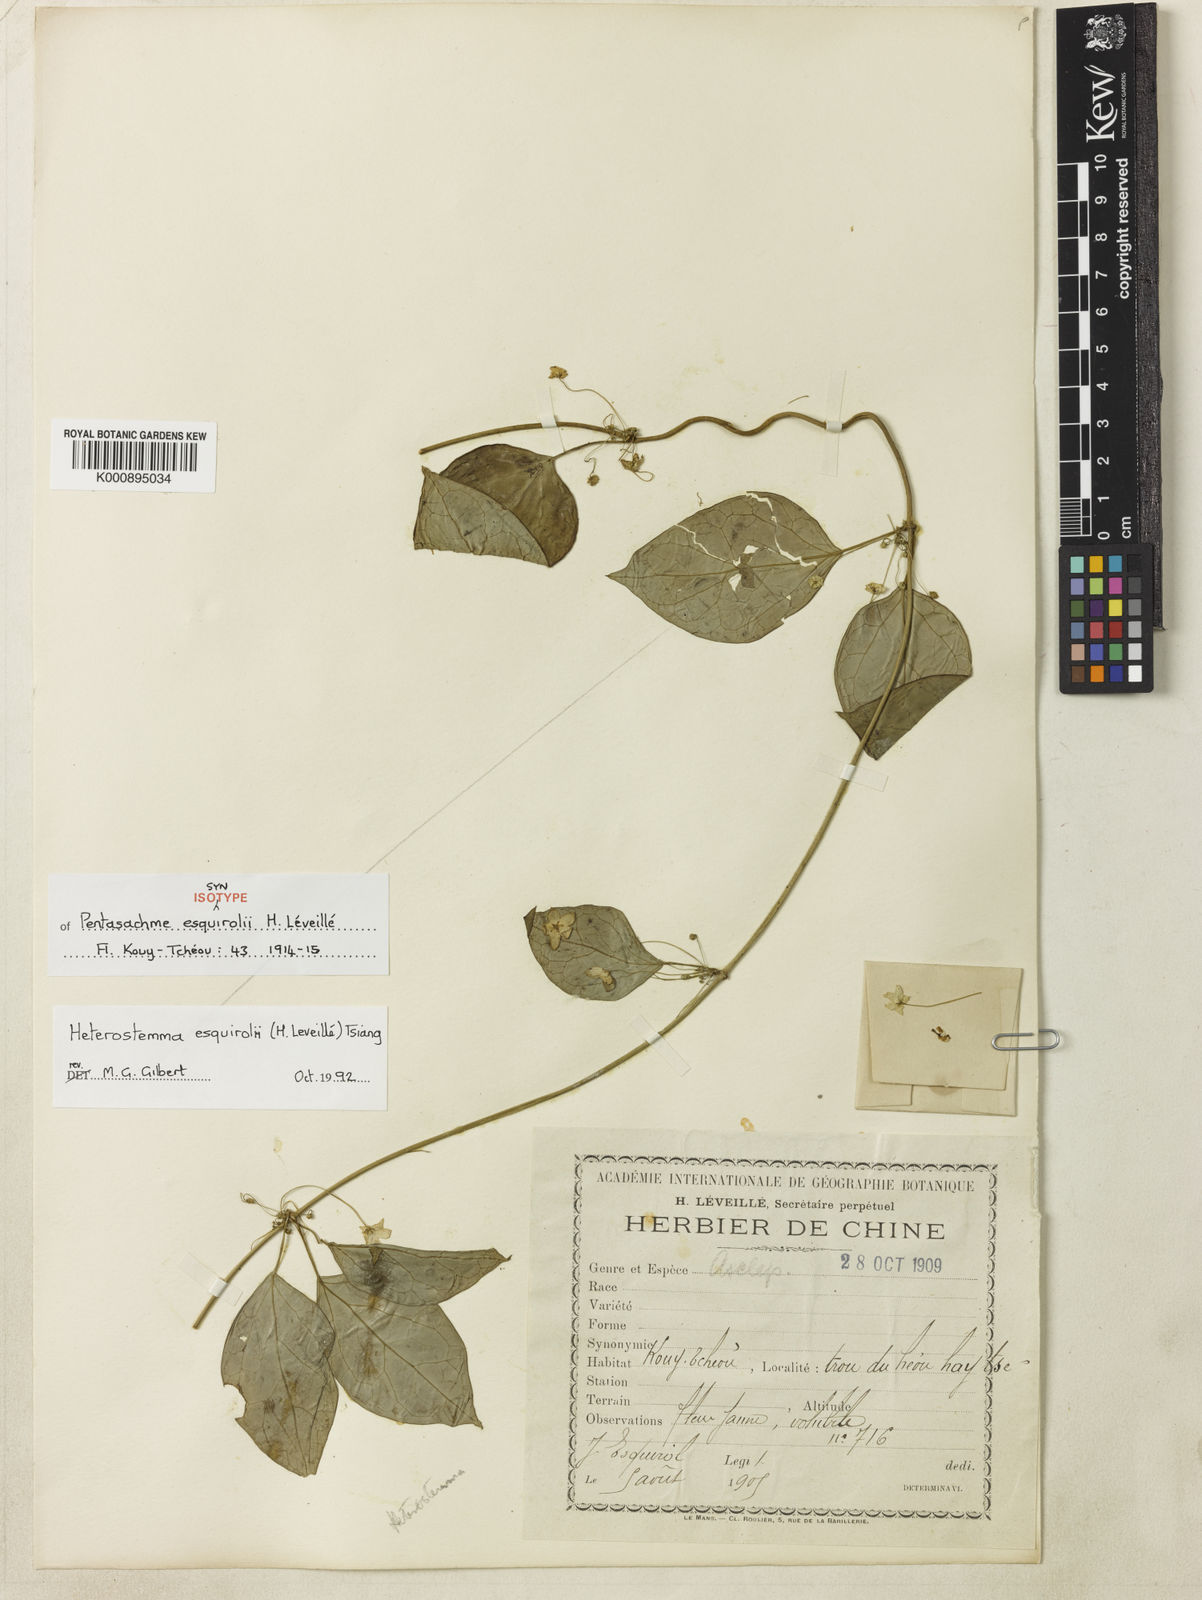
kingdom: Plantae
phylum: Tracheophyta
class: Magnoliopsida
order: Gentianales
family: Apocynaceae
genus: Heterostemma
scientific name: Heterostemma
